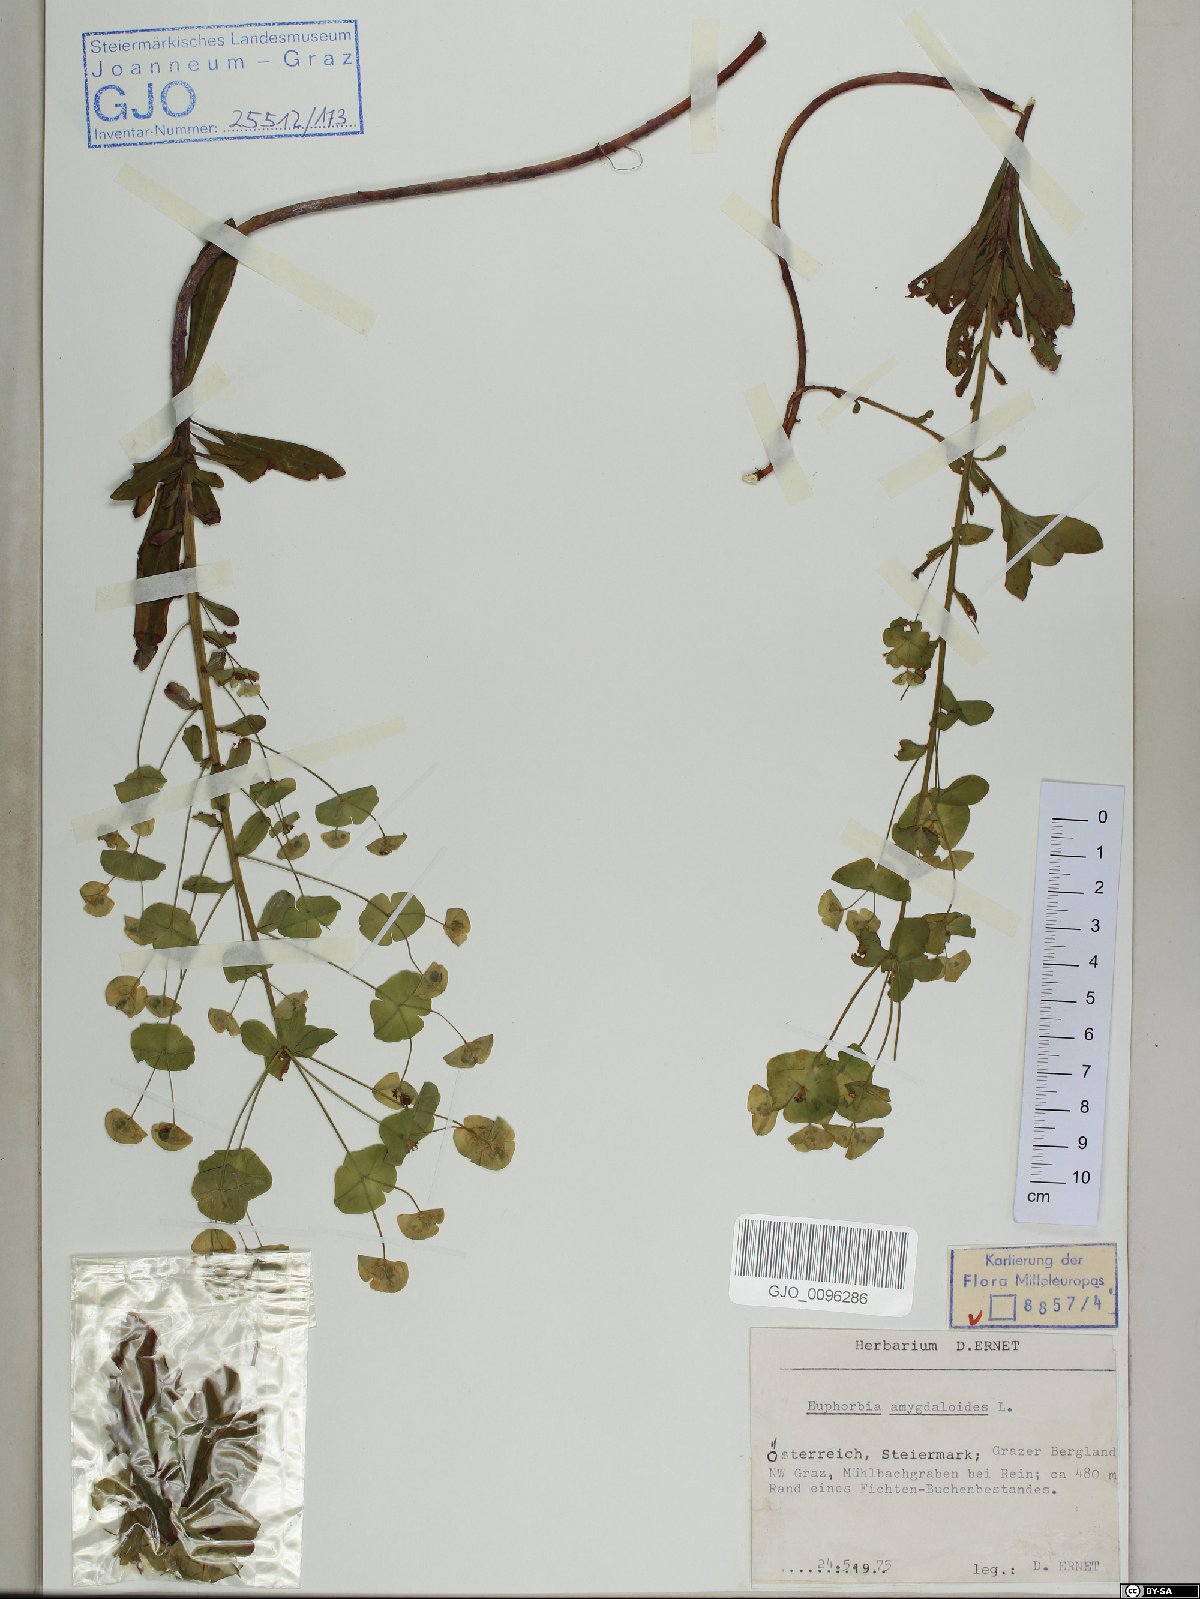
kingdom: Plantae
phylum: Tracheophyta
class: Magnoliopsida
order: Malpighiales
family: Euphorbiaceae
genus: Euphorbia
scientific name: Euphorbia amygdaloides
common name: Wood spurge
